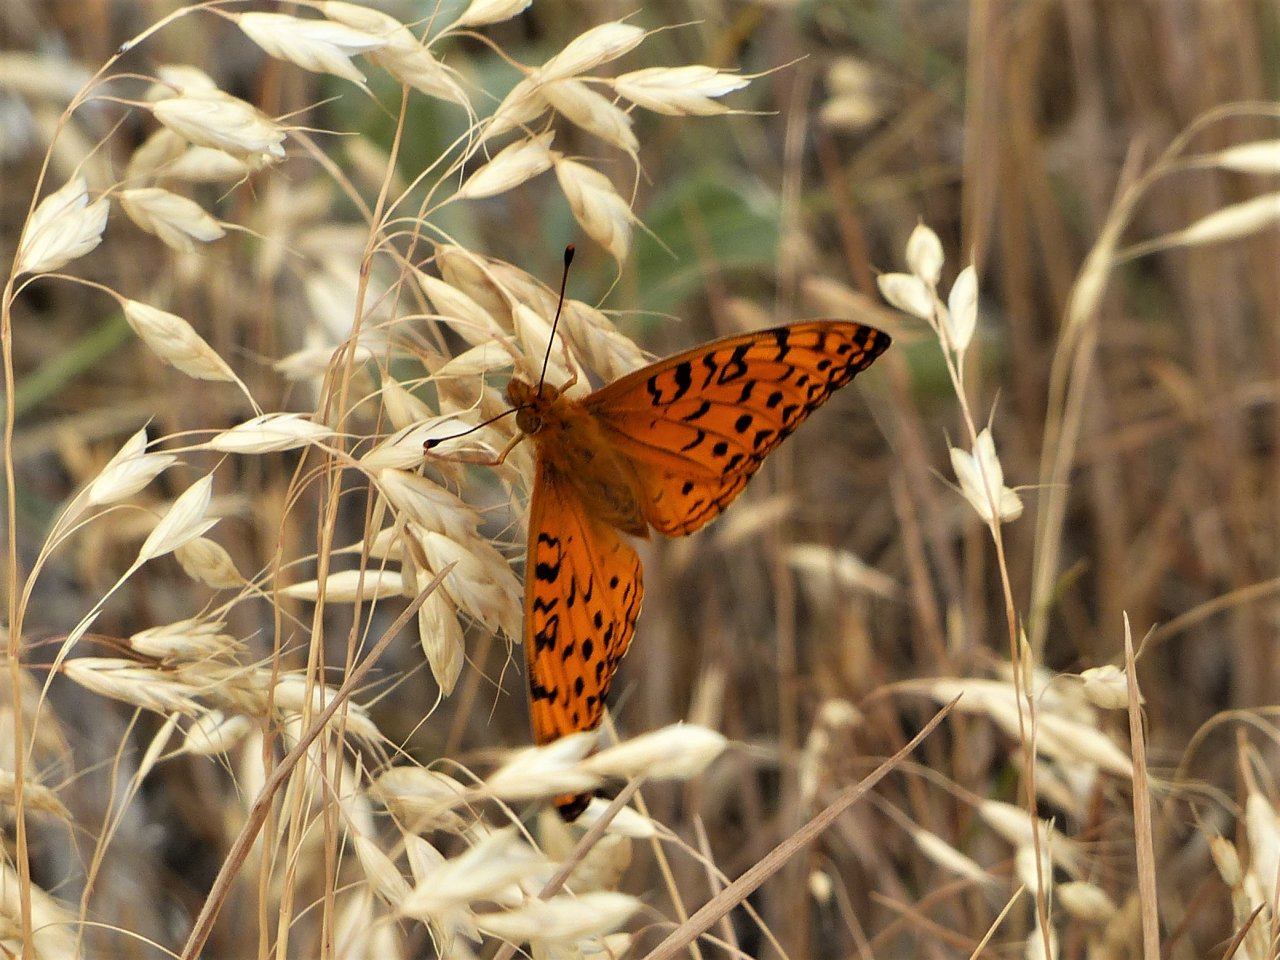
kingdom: Animalia
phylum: Arthropoda
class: Insecta
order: Lepidoptera
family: Nymphalidae
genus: Speyeria
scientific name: Speyeria mormonia
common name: Mormon Fritillary
